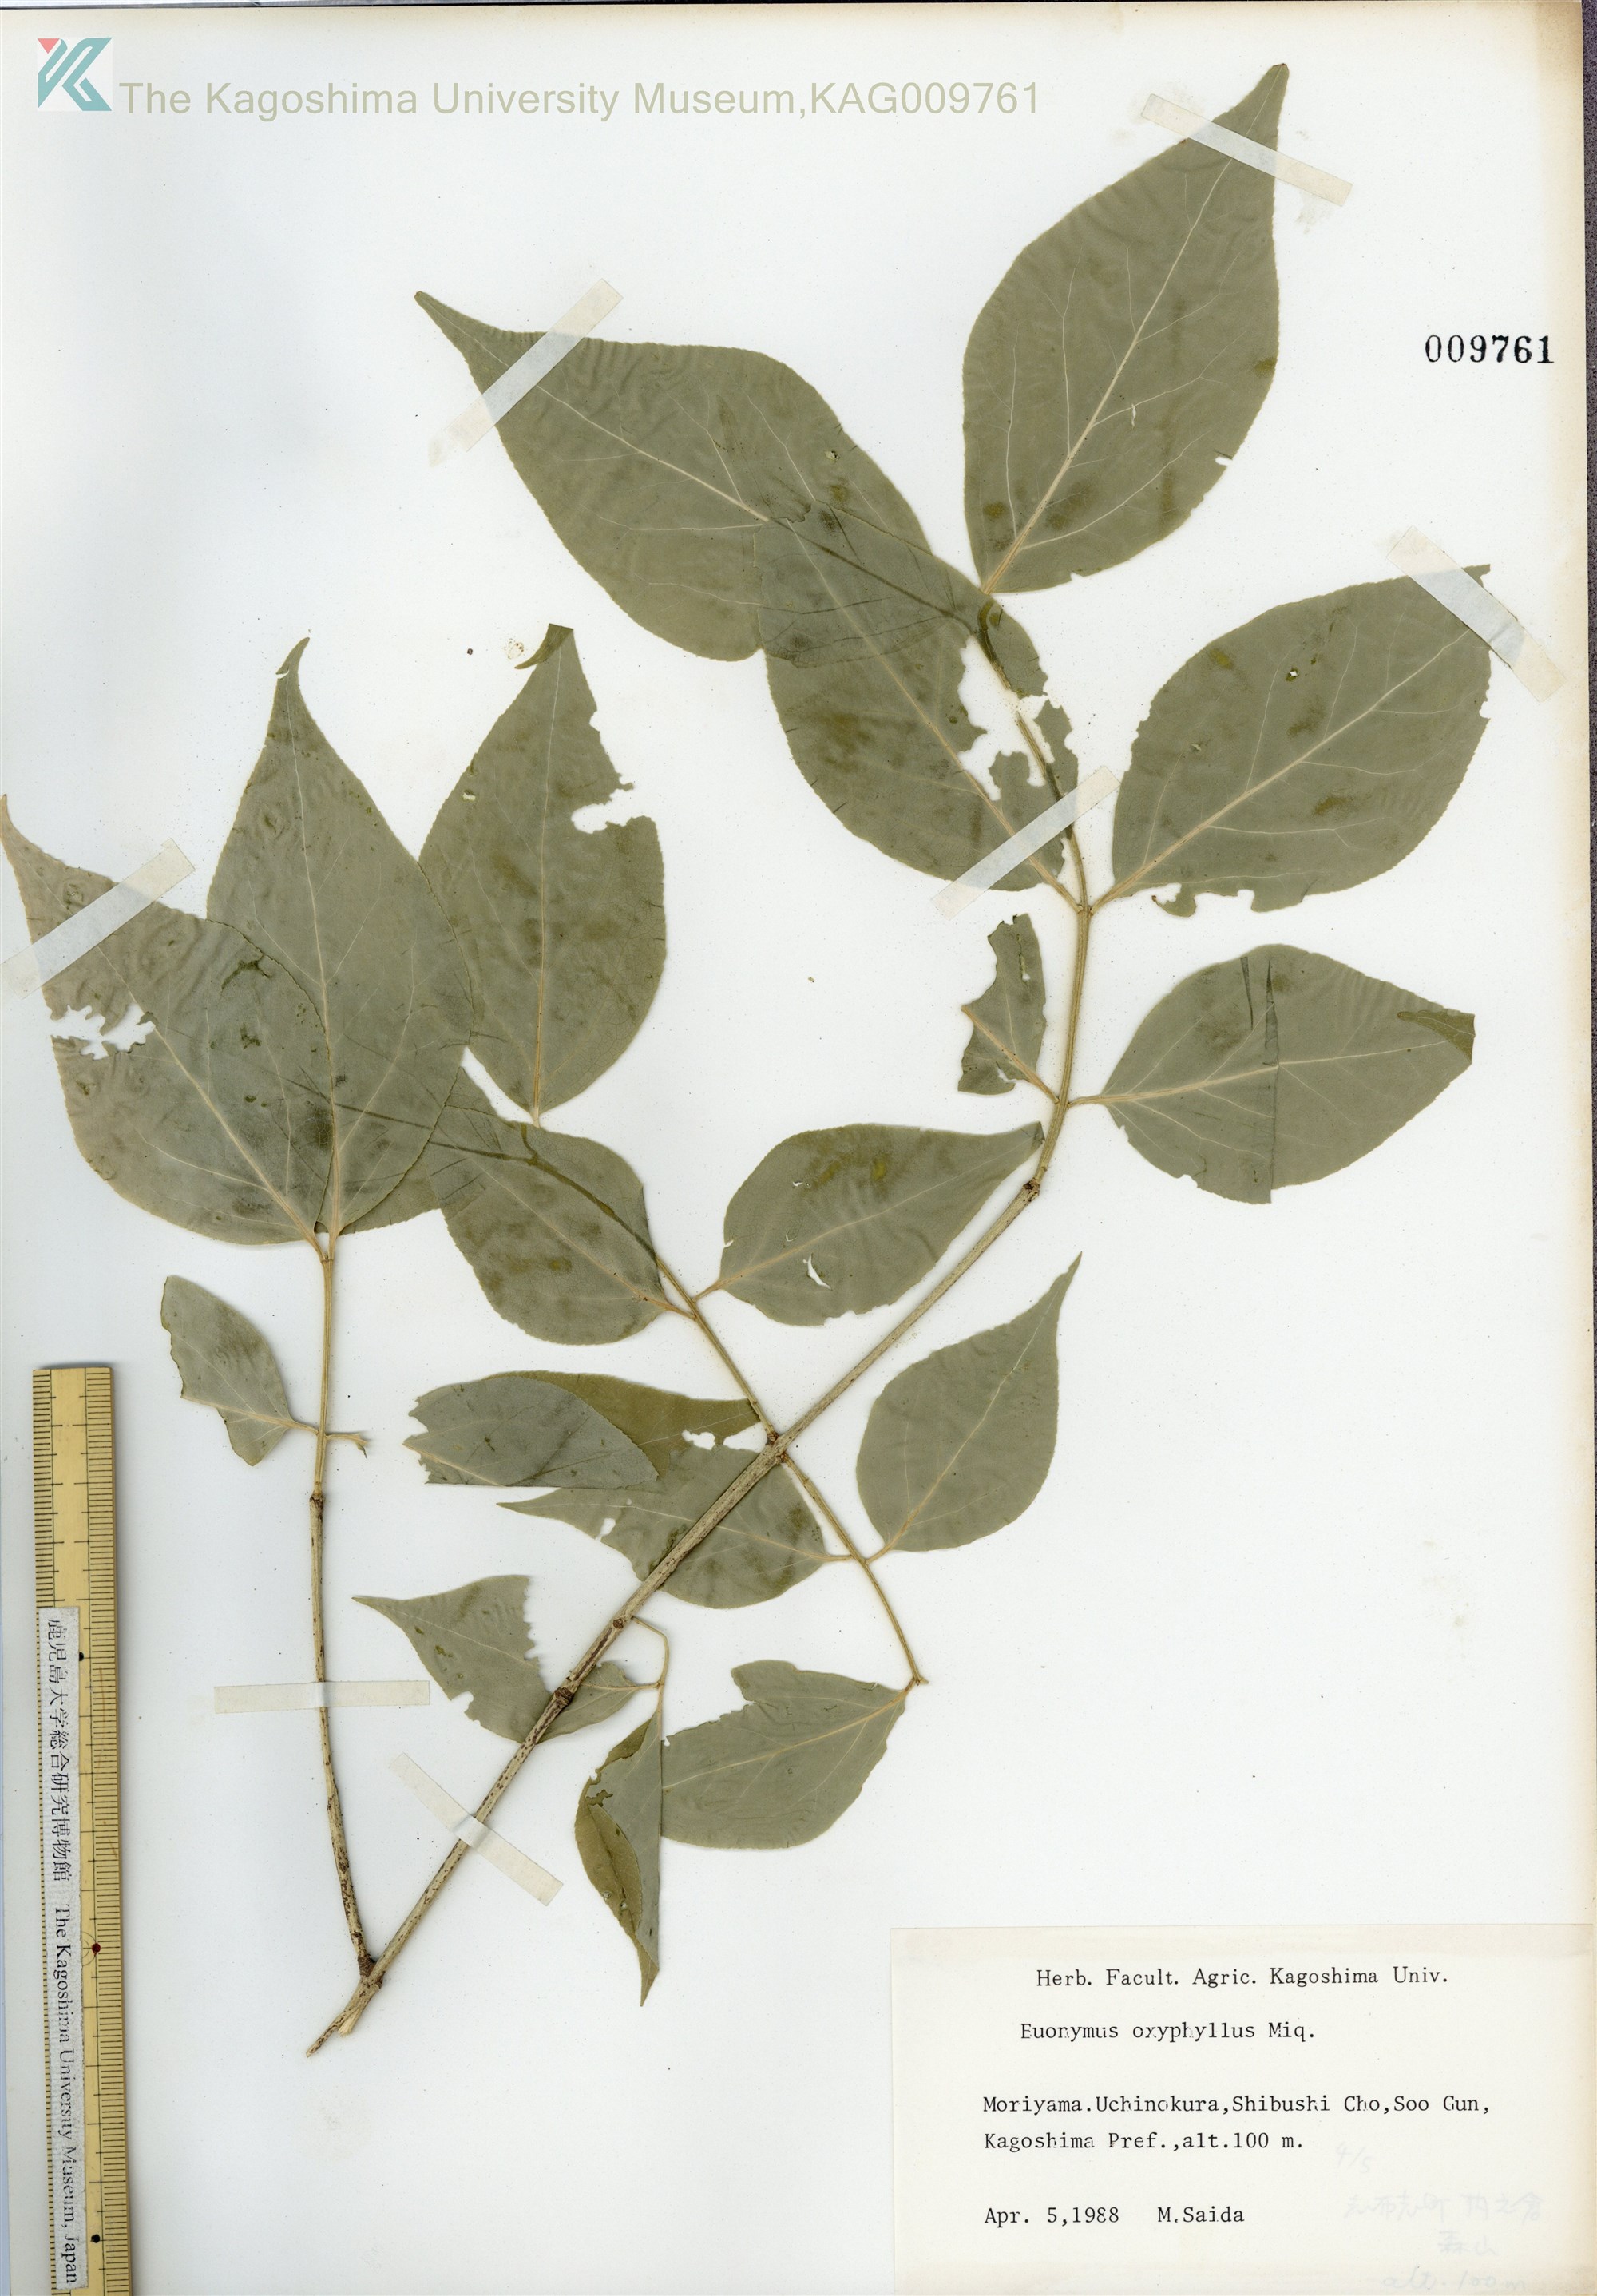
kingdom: Plantae
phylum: Tracheophyta
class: Magnoliopsida
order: Celastrales
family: Celastraceae
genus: Euonymus
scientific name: Euonymus oxyphyllus
